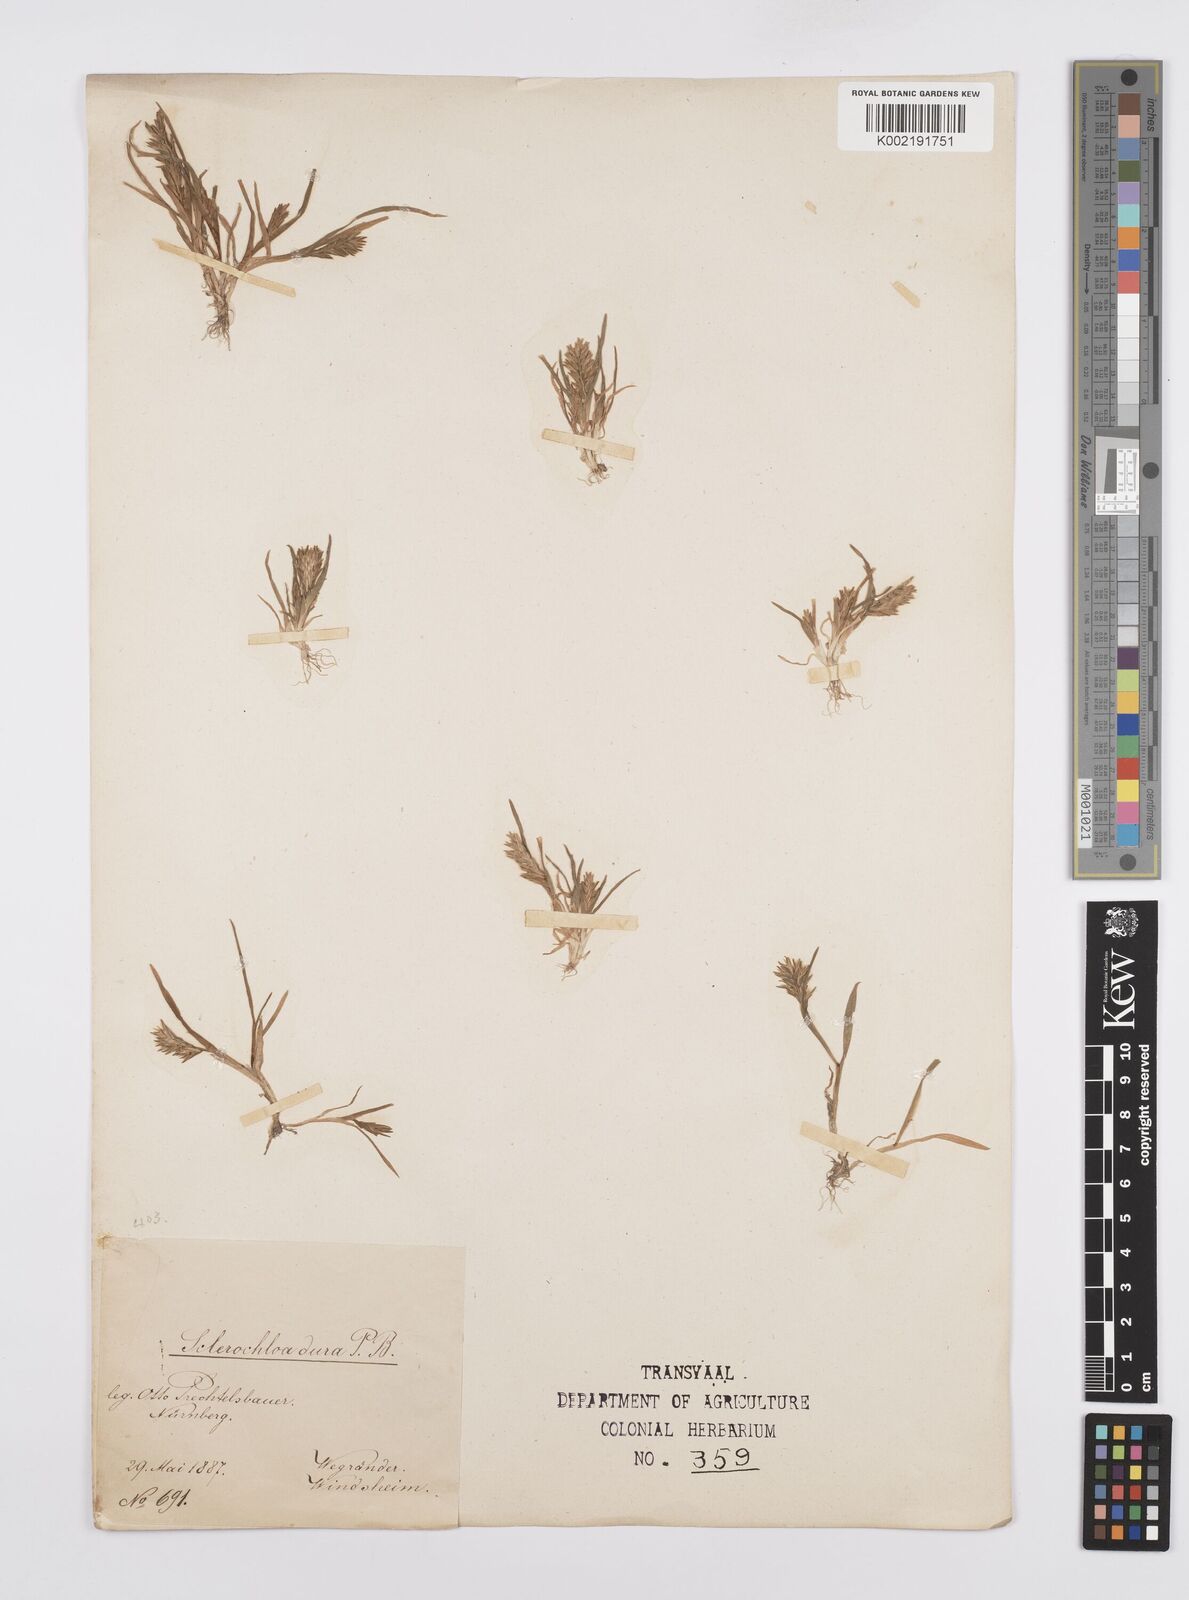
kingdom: Plantae
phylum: Tracheophyta
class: Liliopsida
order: Poales
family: Poaceae
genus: Sclerochloa
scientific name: Sclerochloa dura
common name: Common hardgrass
